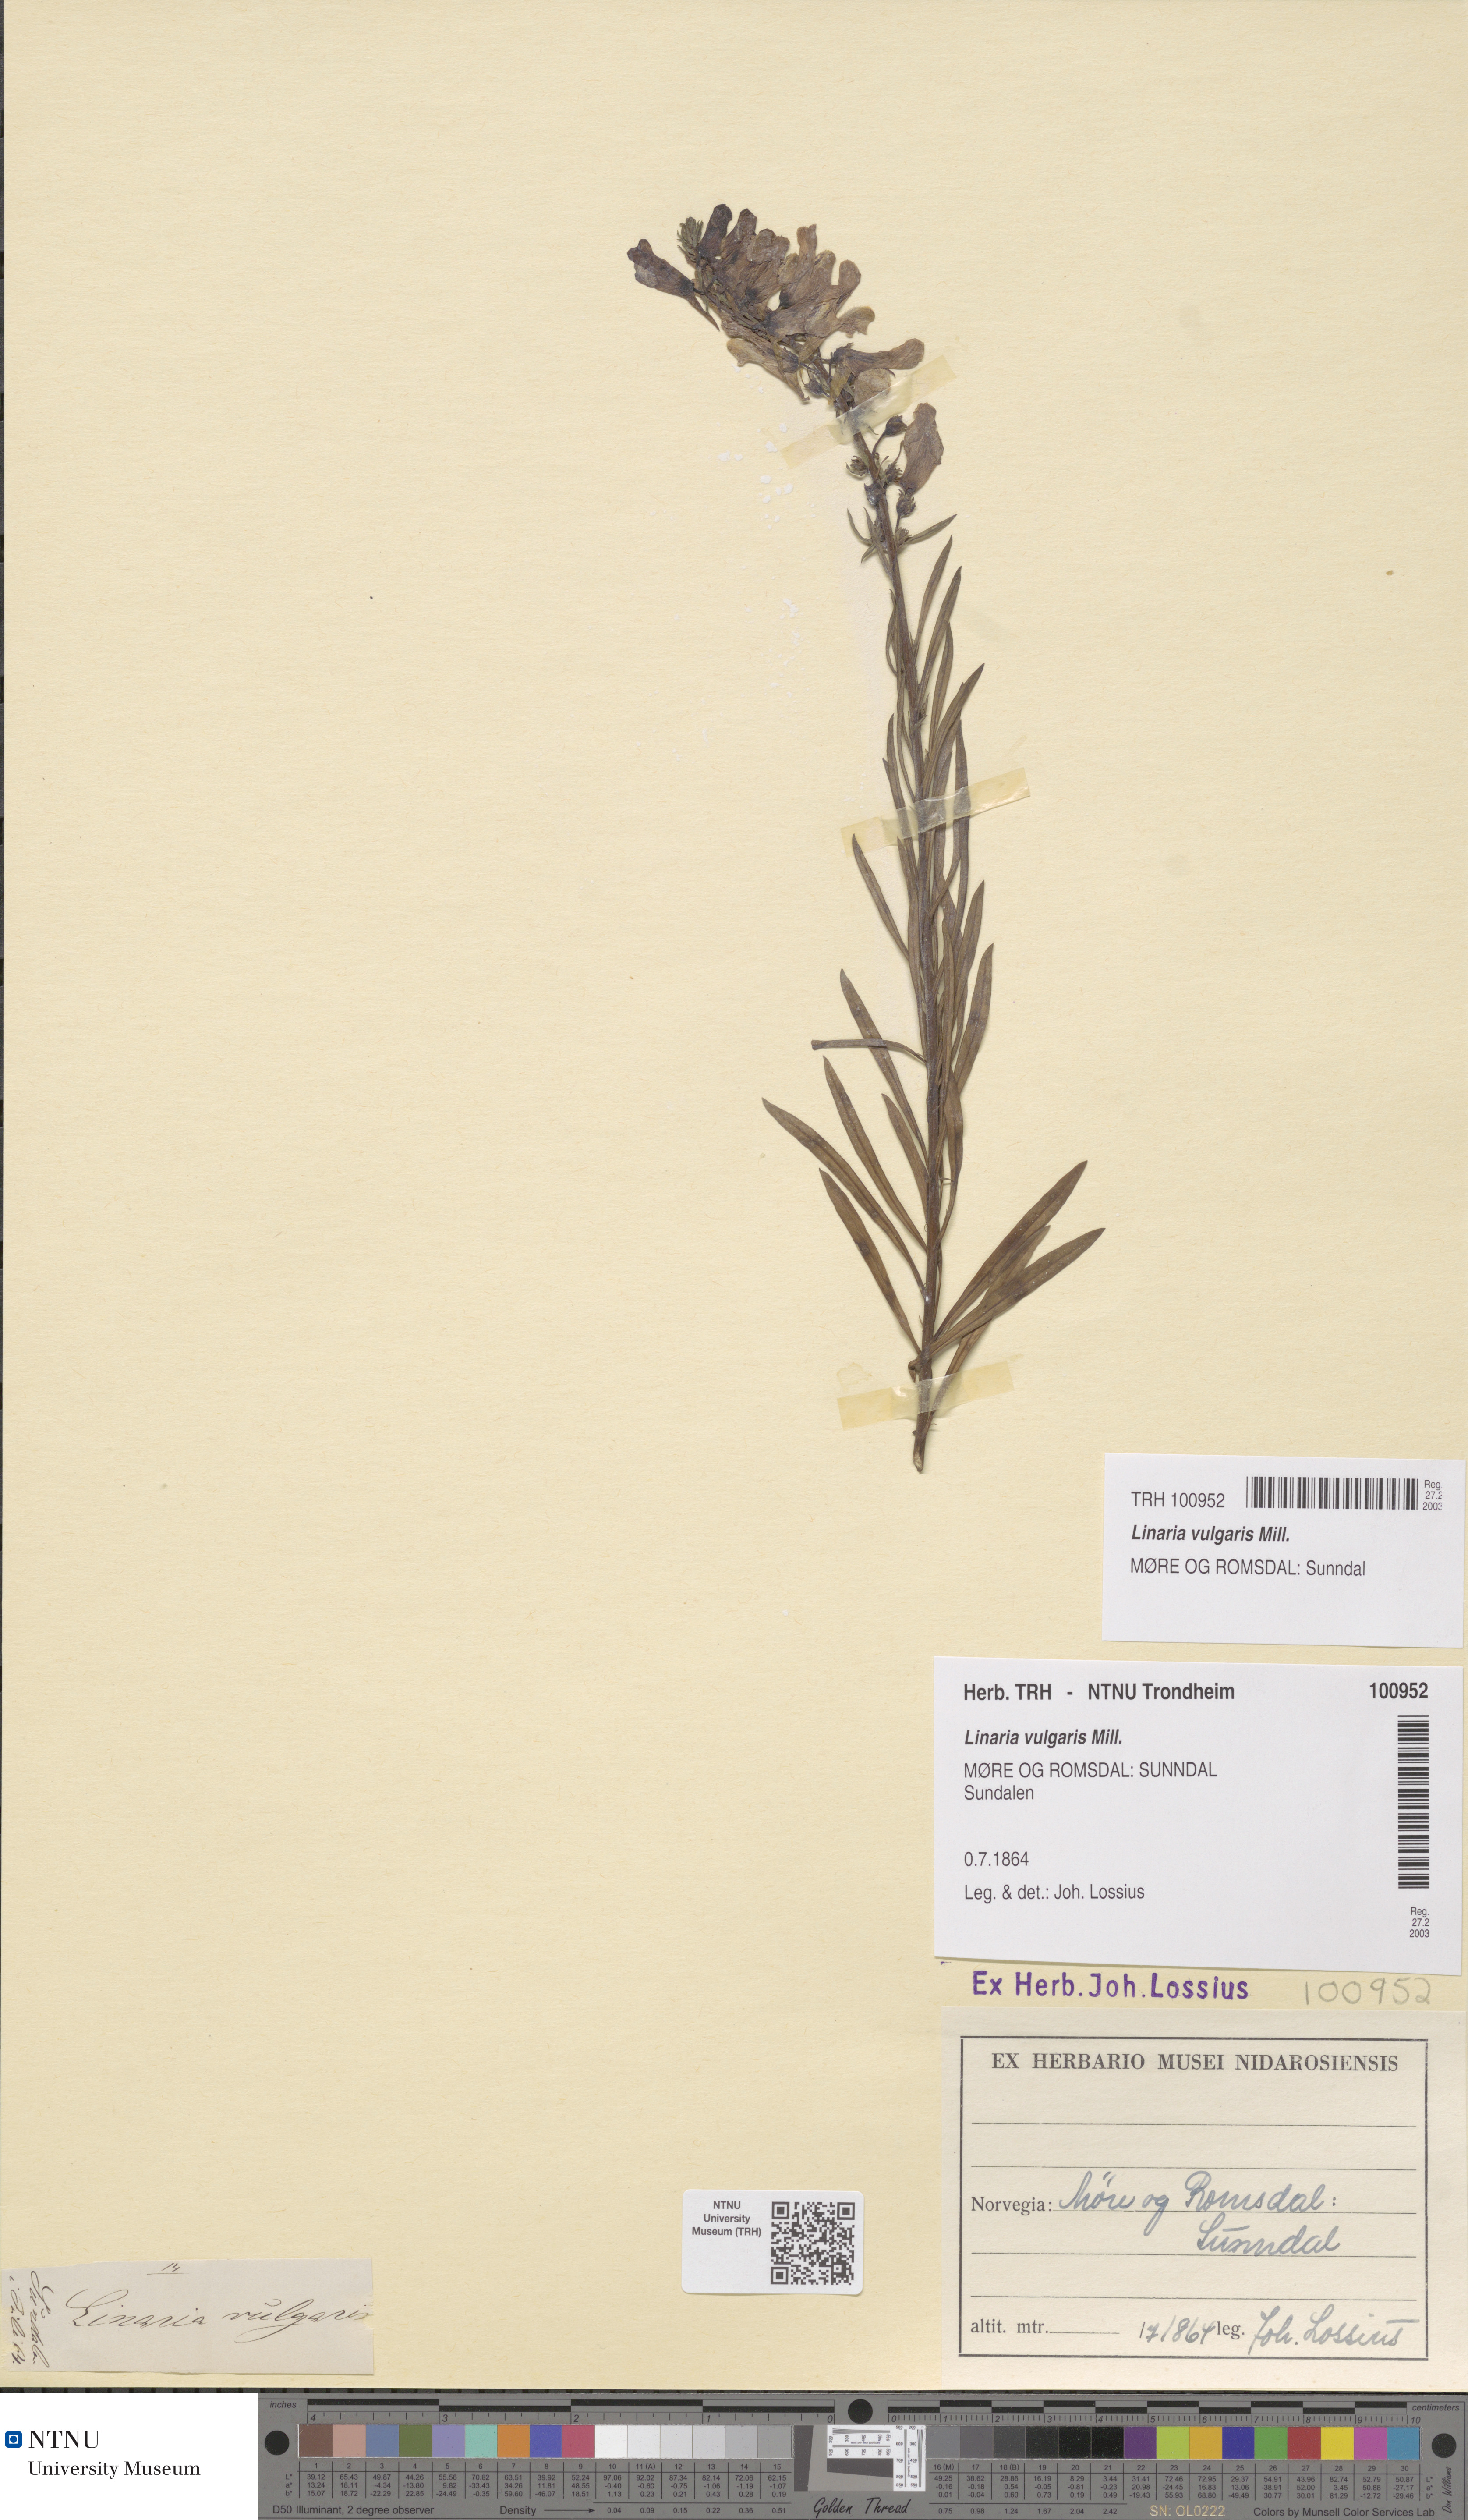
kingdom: Plantae
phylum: Tracheophyta
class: Magnoliopsida
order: Lamiales
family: Plantaginaceae
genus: Linaria
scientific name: Linaria vulgaris
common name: Butter and eggs
